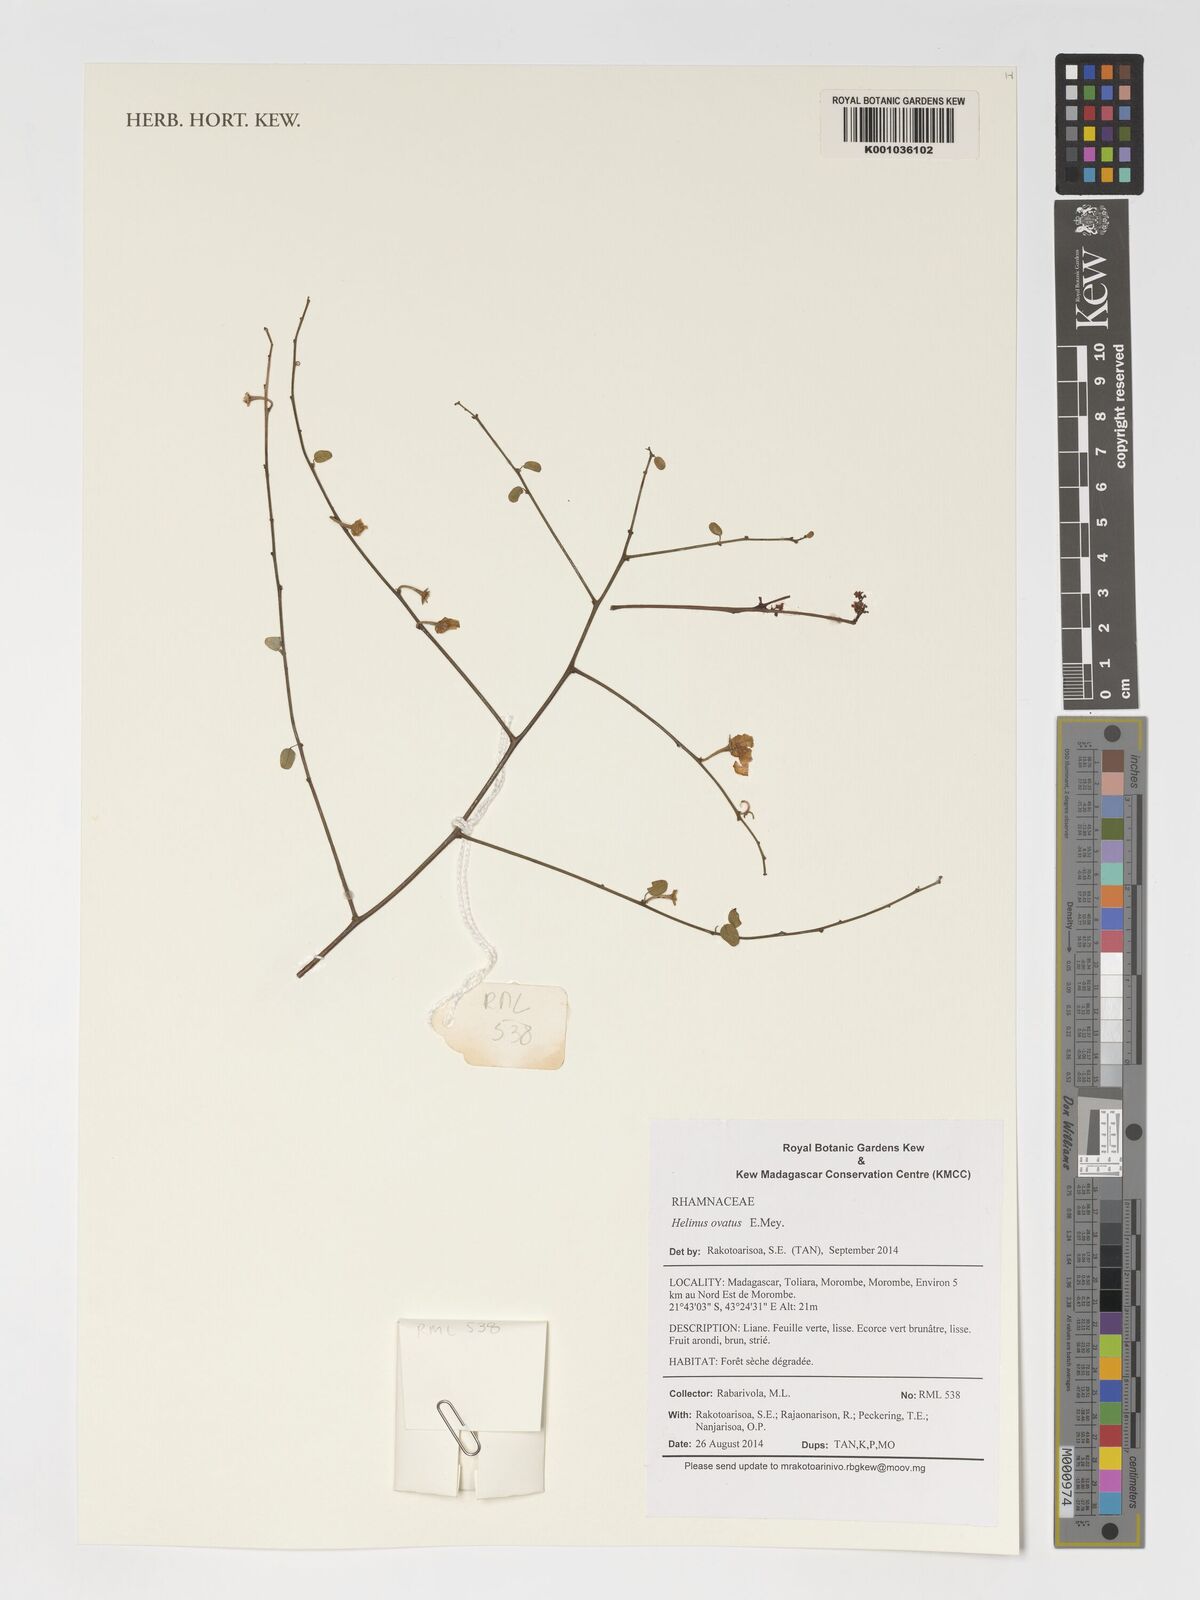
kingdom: Plantae
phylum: Tracheophyta
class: Magnoliopsida
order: Rosales
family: Rhamnaceae
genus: Helinus
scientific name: Helinus
